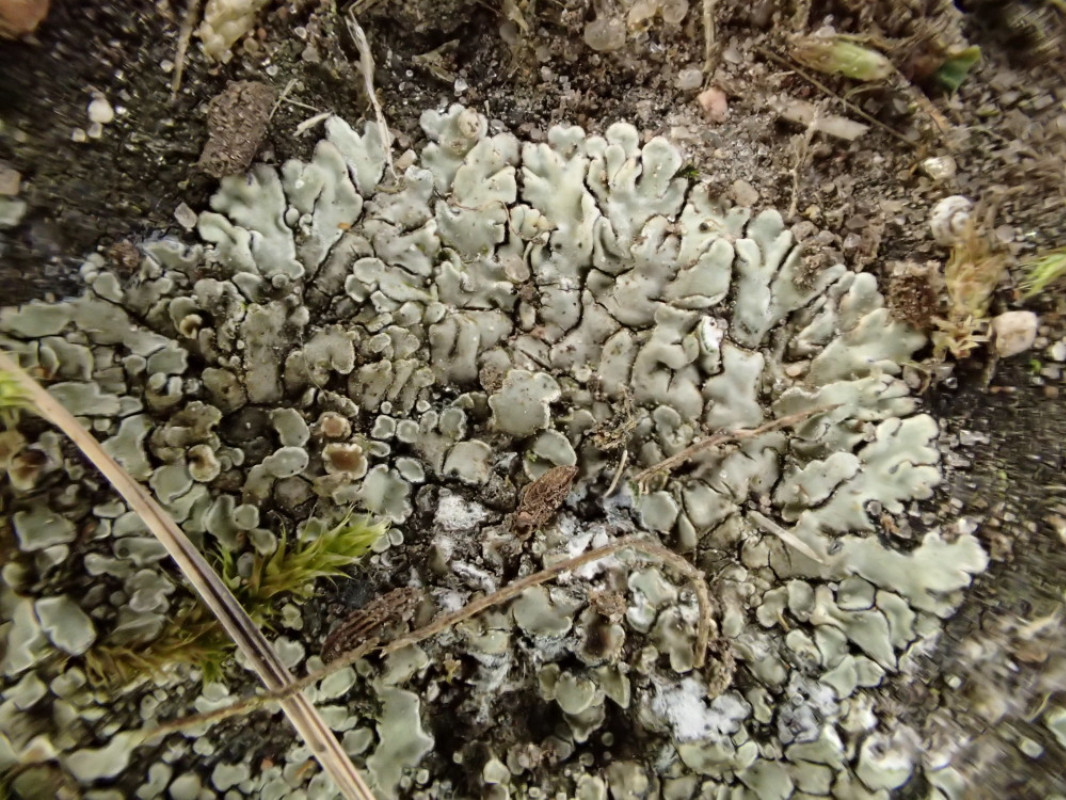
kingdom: Fungi
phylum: Ascomycota
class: Lecanoromycetes
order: Lecanorales
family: Lecanoraceae
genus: Protoparmeliopsis
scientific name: Protoparmeliopsis muralis
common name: randfliget kantskivelav
